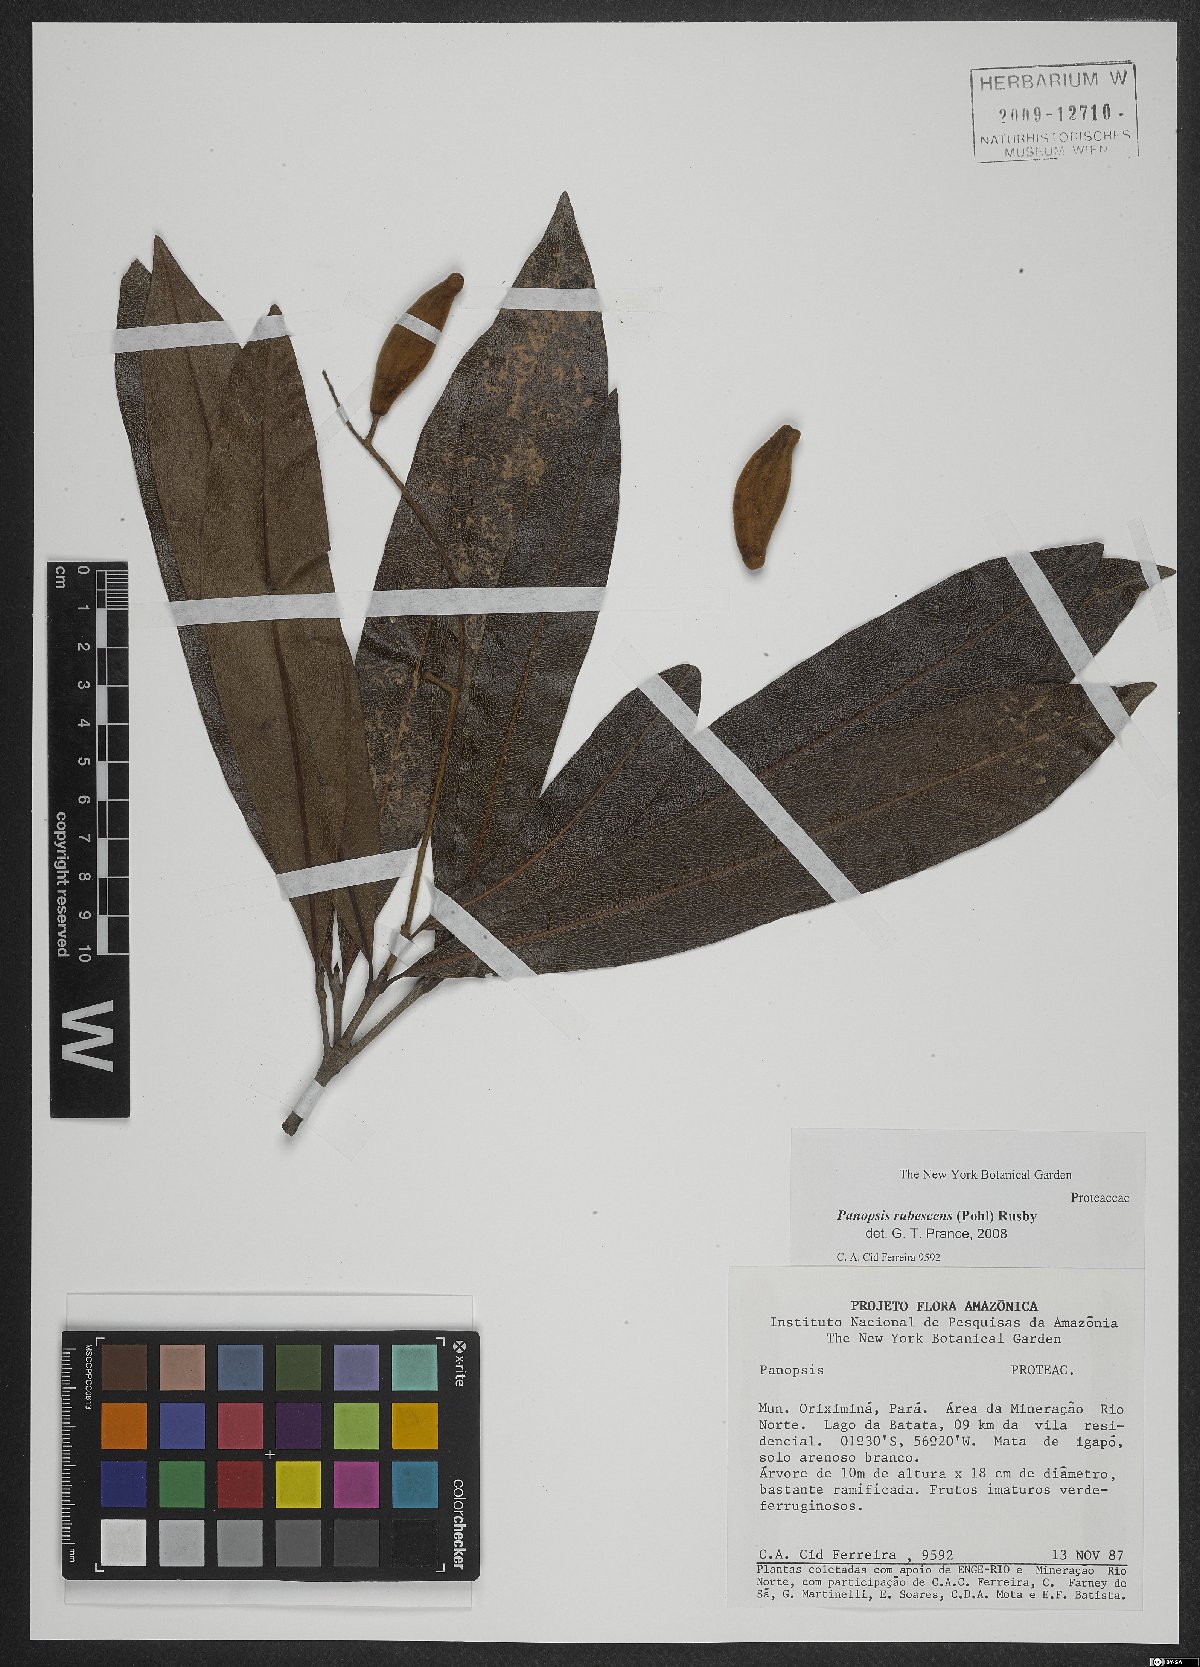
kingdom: Plantae
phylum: Tracheophyta
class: Magnoliopsida
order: Proteales
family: Proteaceae
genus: Panopsis
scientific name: Panopsis rubescens
